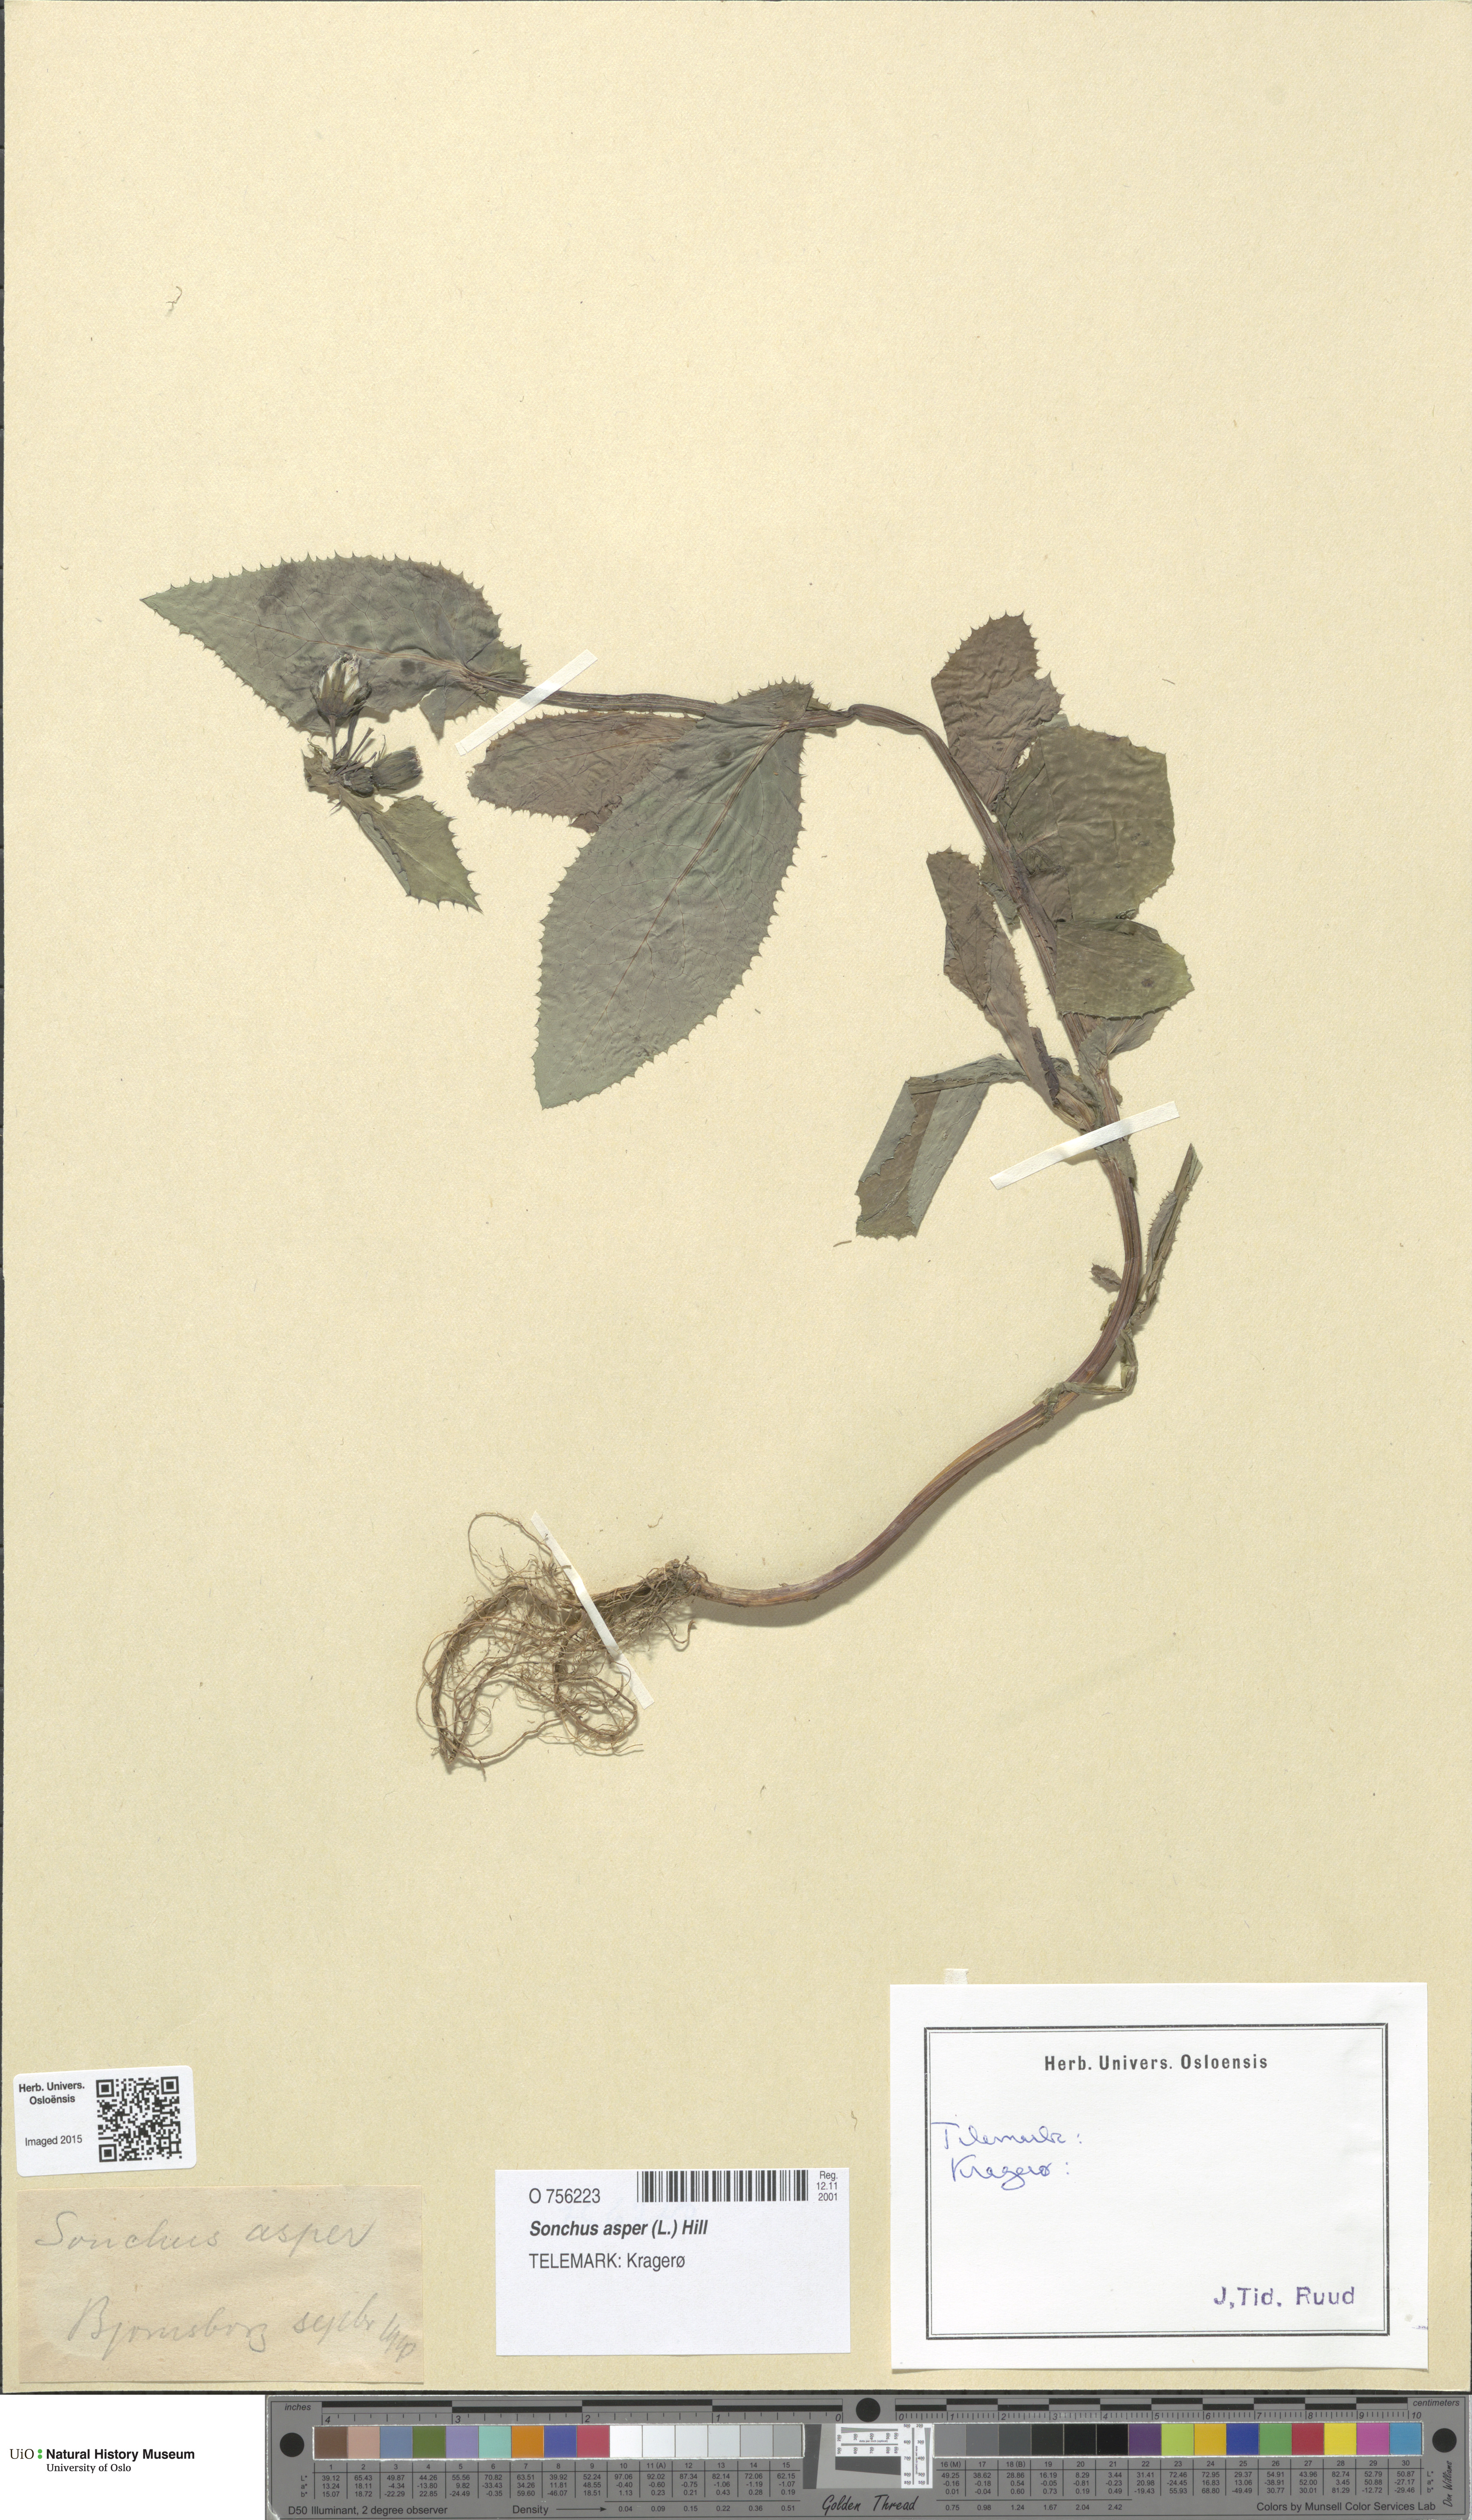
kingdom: Plantae
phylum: Tracheophyta
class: Magnoliopsida
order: Asterales
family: Asteraceae
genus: Sonchus
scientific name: Sonchus asper
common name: Prickly sow-thistle
